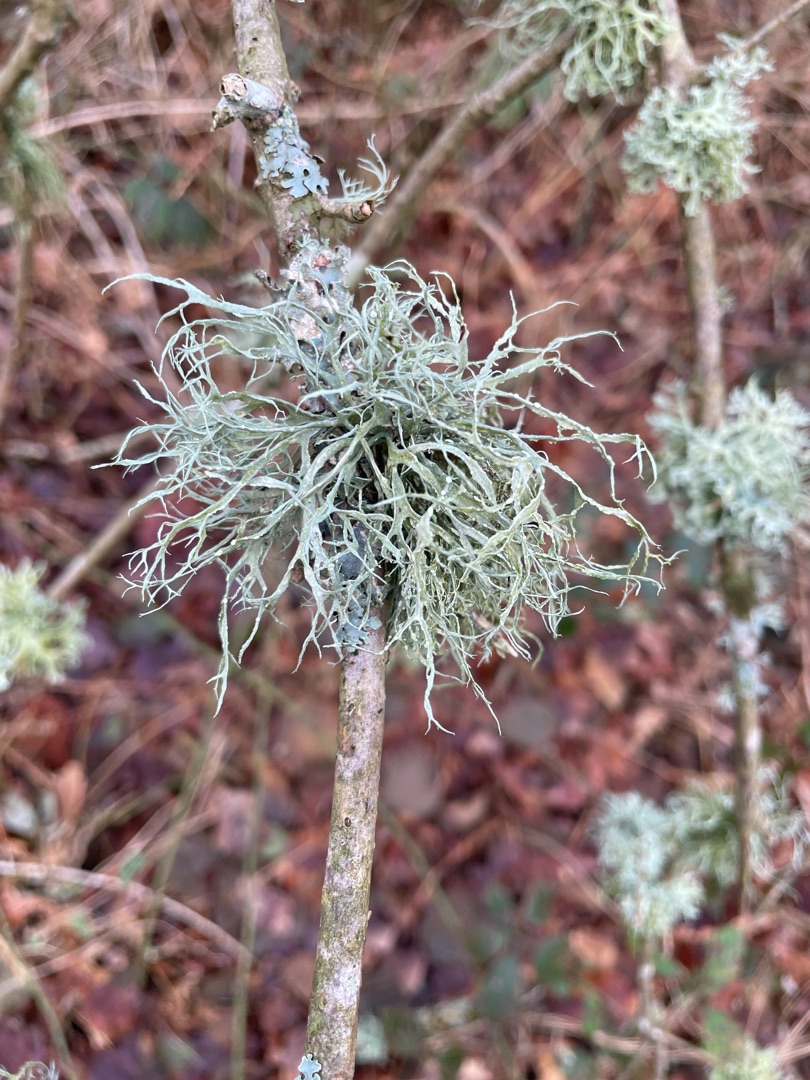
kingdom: Fungi
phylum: Ascomycota
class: Lecanoromycetes
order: Lecanorales
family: Ramalinaceae
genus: Ramalina
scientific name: Ramalina farinacea
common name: Melet grenlav
